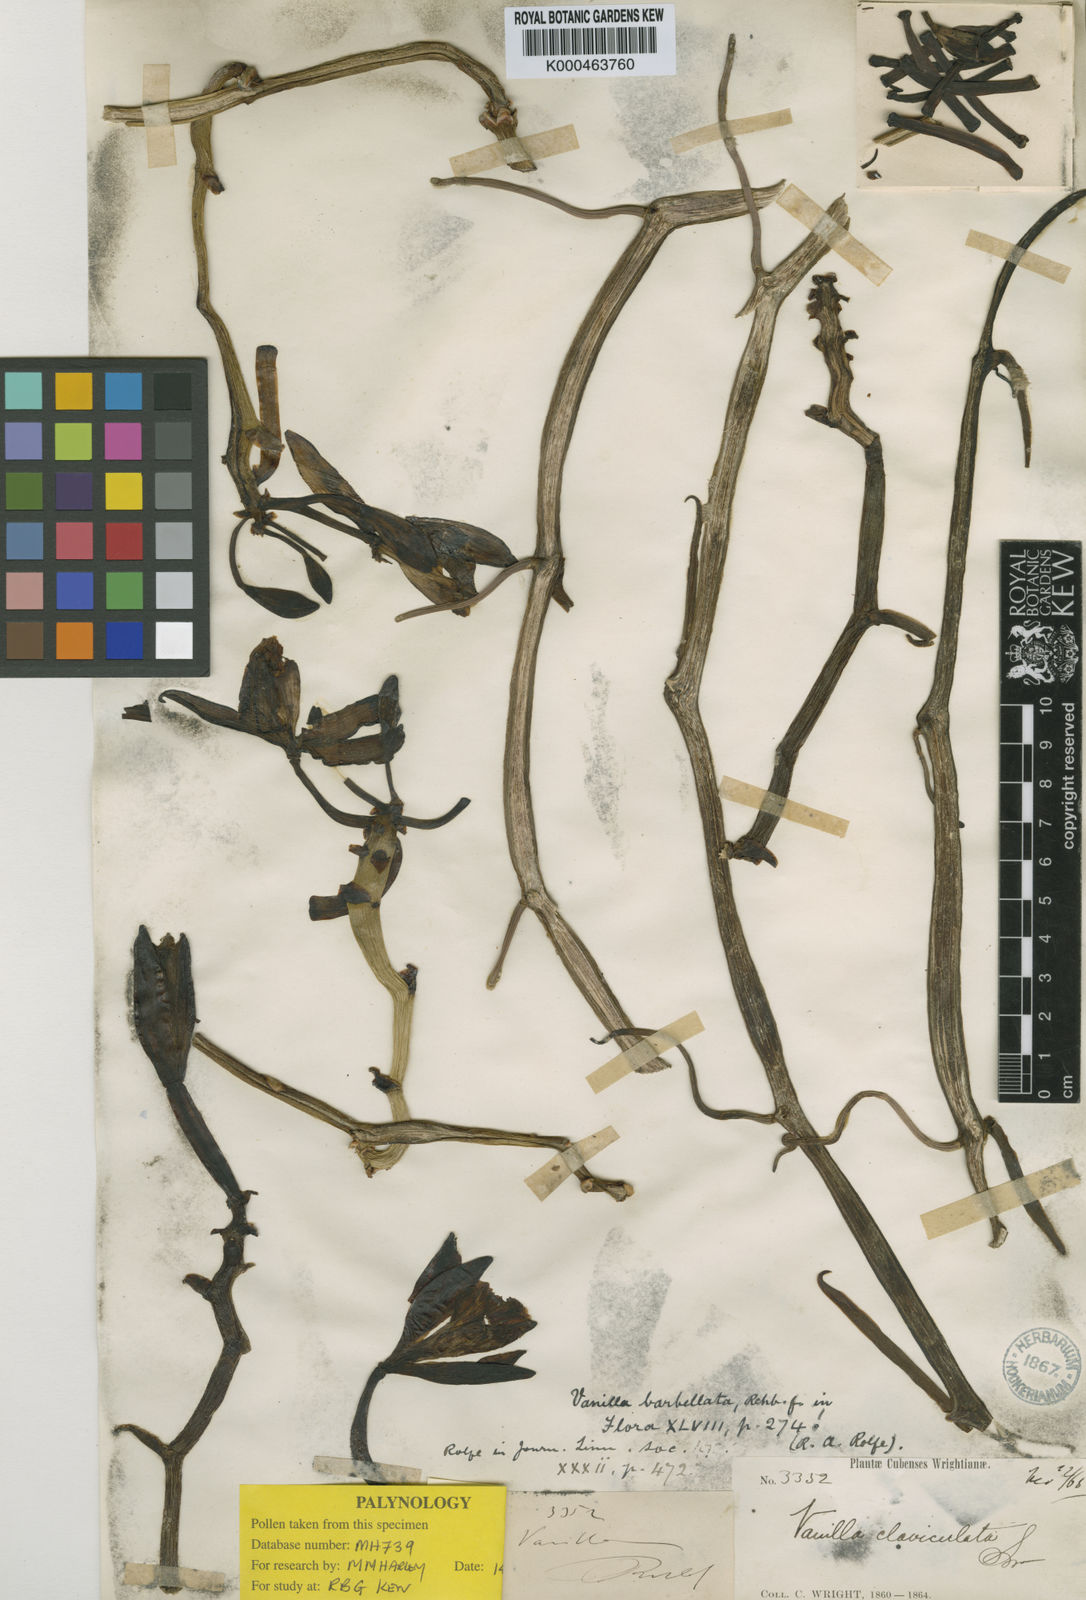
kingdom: Plantae
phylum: Tracheophyta
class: Liliopsida
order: Asparagales
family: Orchidaceae
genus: Vanilla
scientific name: Vanilla barbellata
